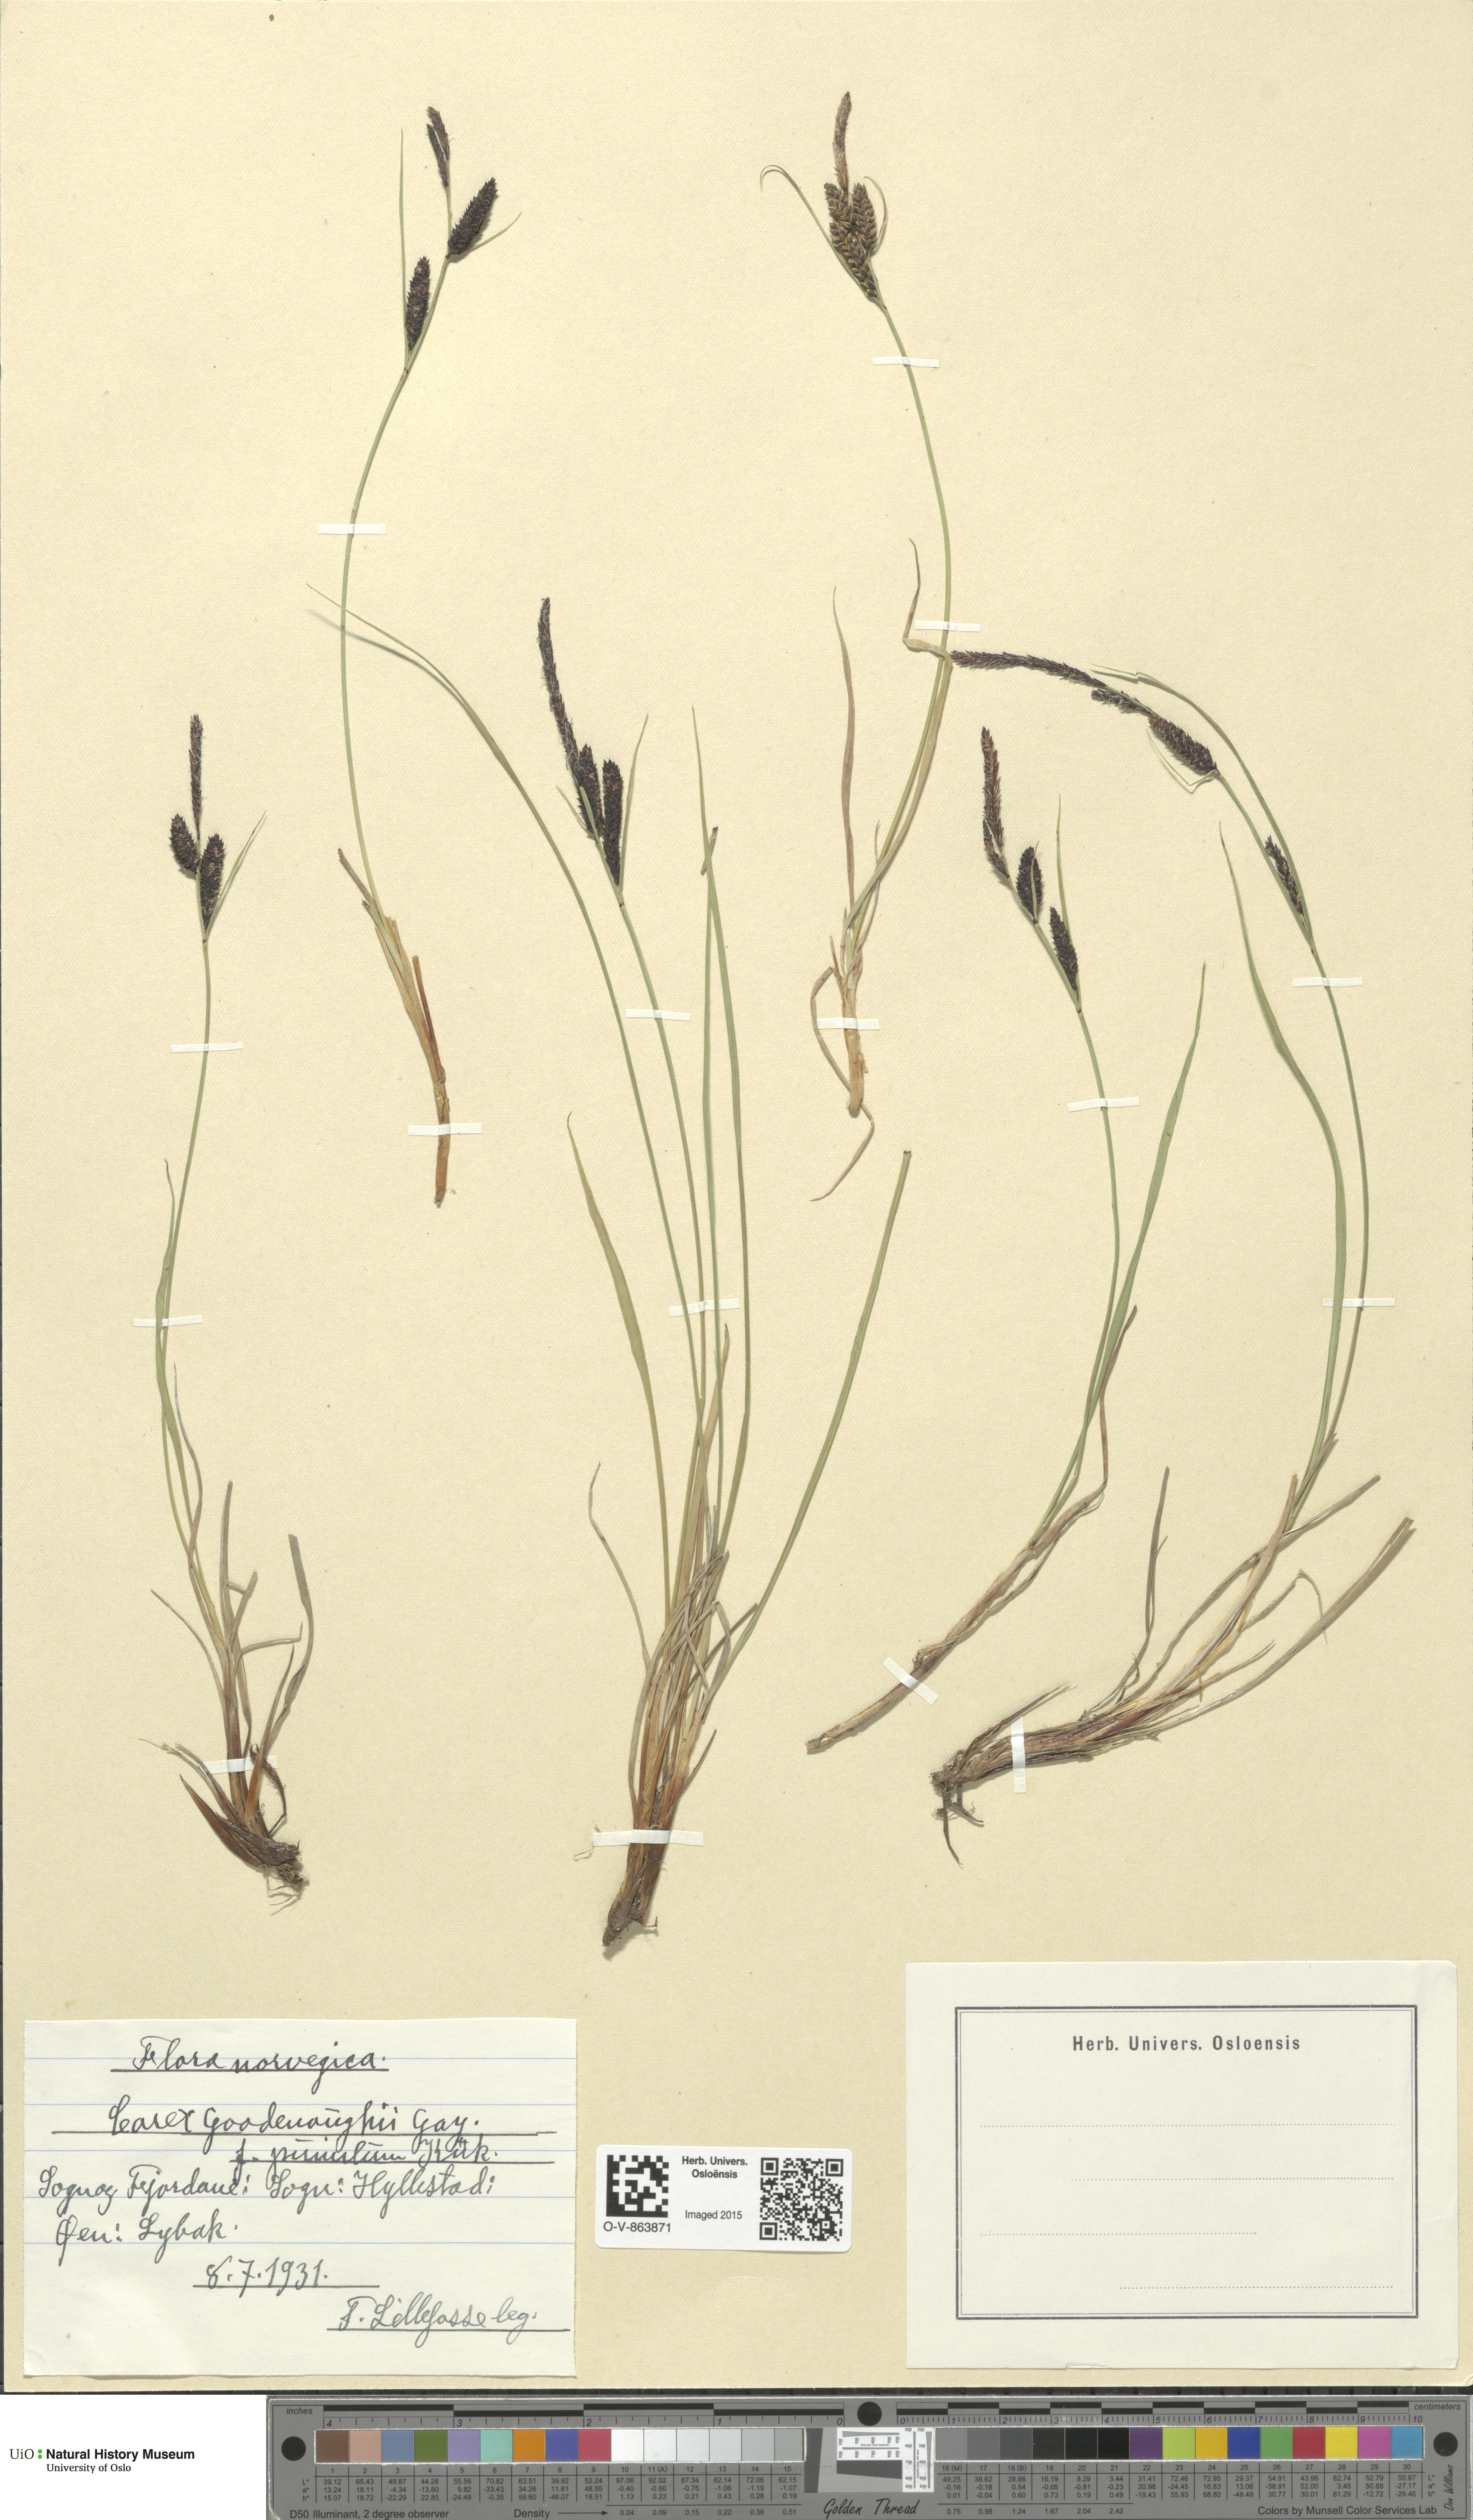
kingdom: Plantae
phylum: Tracheophyta
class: Liliopsida
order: Poales
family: Cyperaceae
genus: Carex
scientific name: Carex nigra
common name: Common sedge
